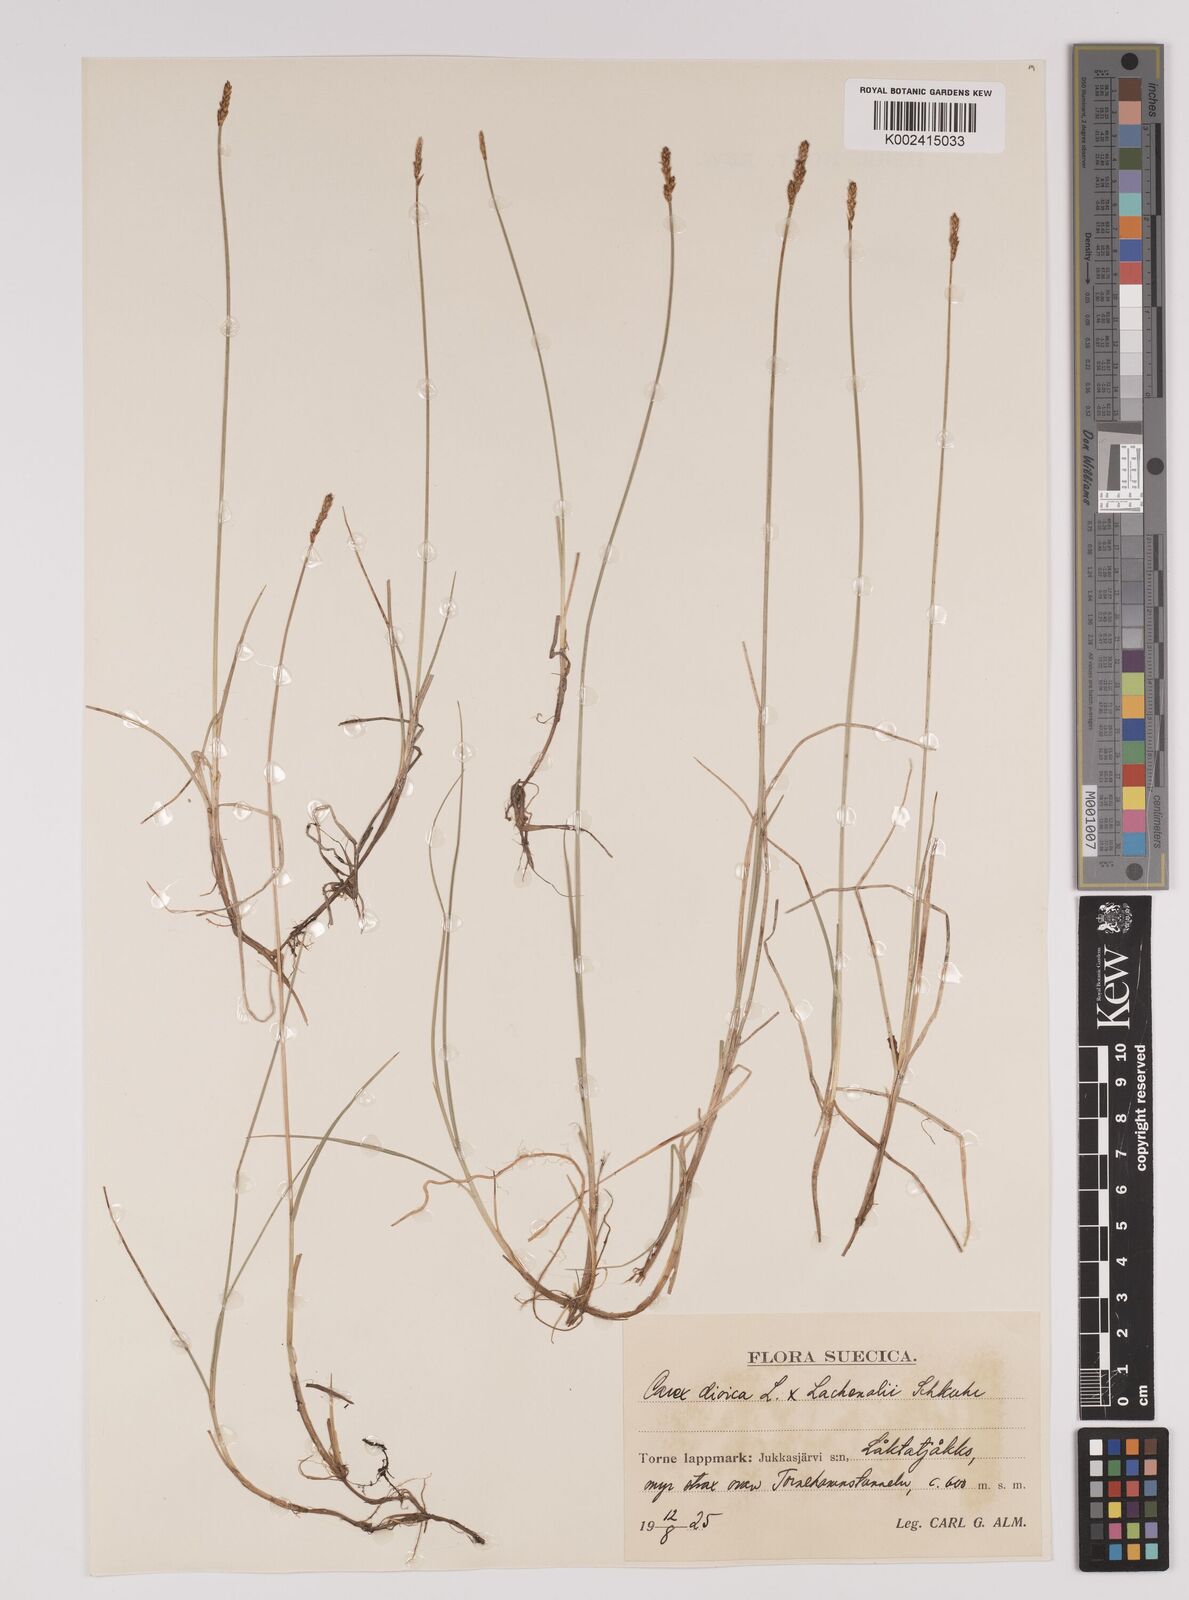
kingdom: Plantae
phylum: Tracheophyta
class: Liliopsida
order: Poales
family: Cyperaceae
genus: Carex
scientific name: Carex dioica
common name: Dioecious sedge
